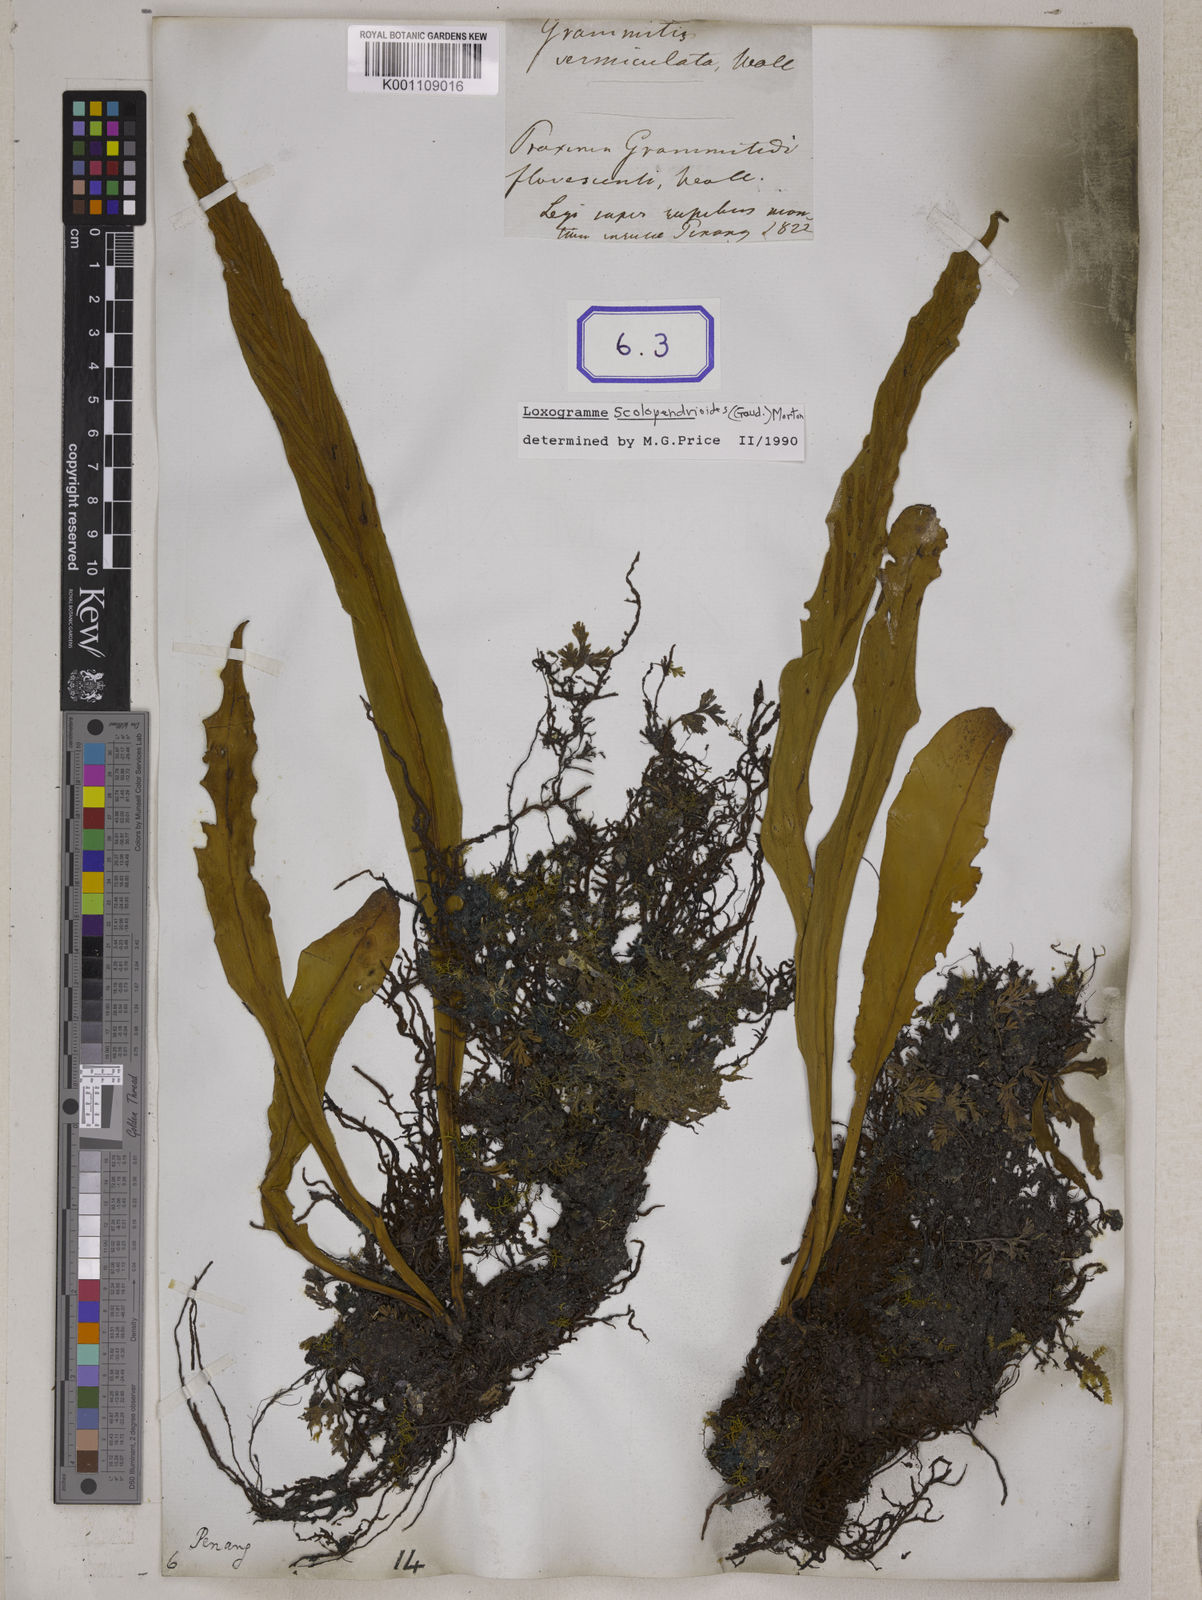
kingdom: Plantae
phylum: Tracheophyta
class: Polypodiopsida
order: Polypodiales
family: Polypodiaceae
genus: Loxogramme
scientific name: Loxogramme involuta
